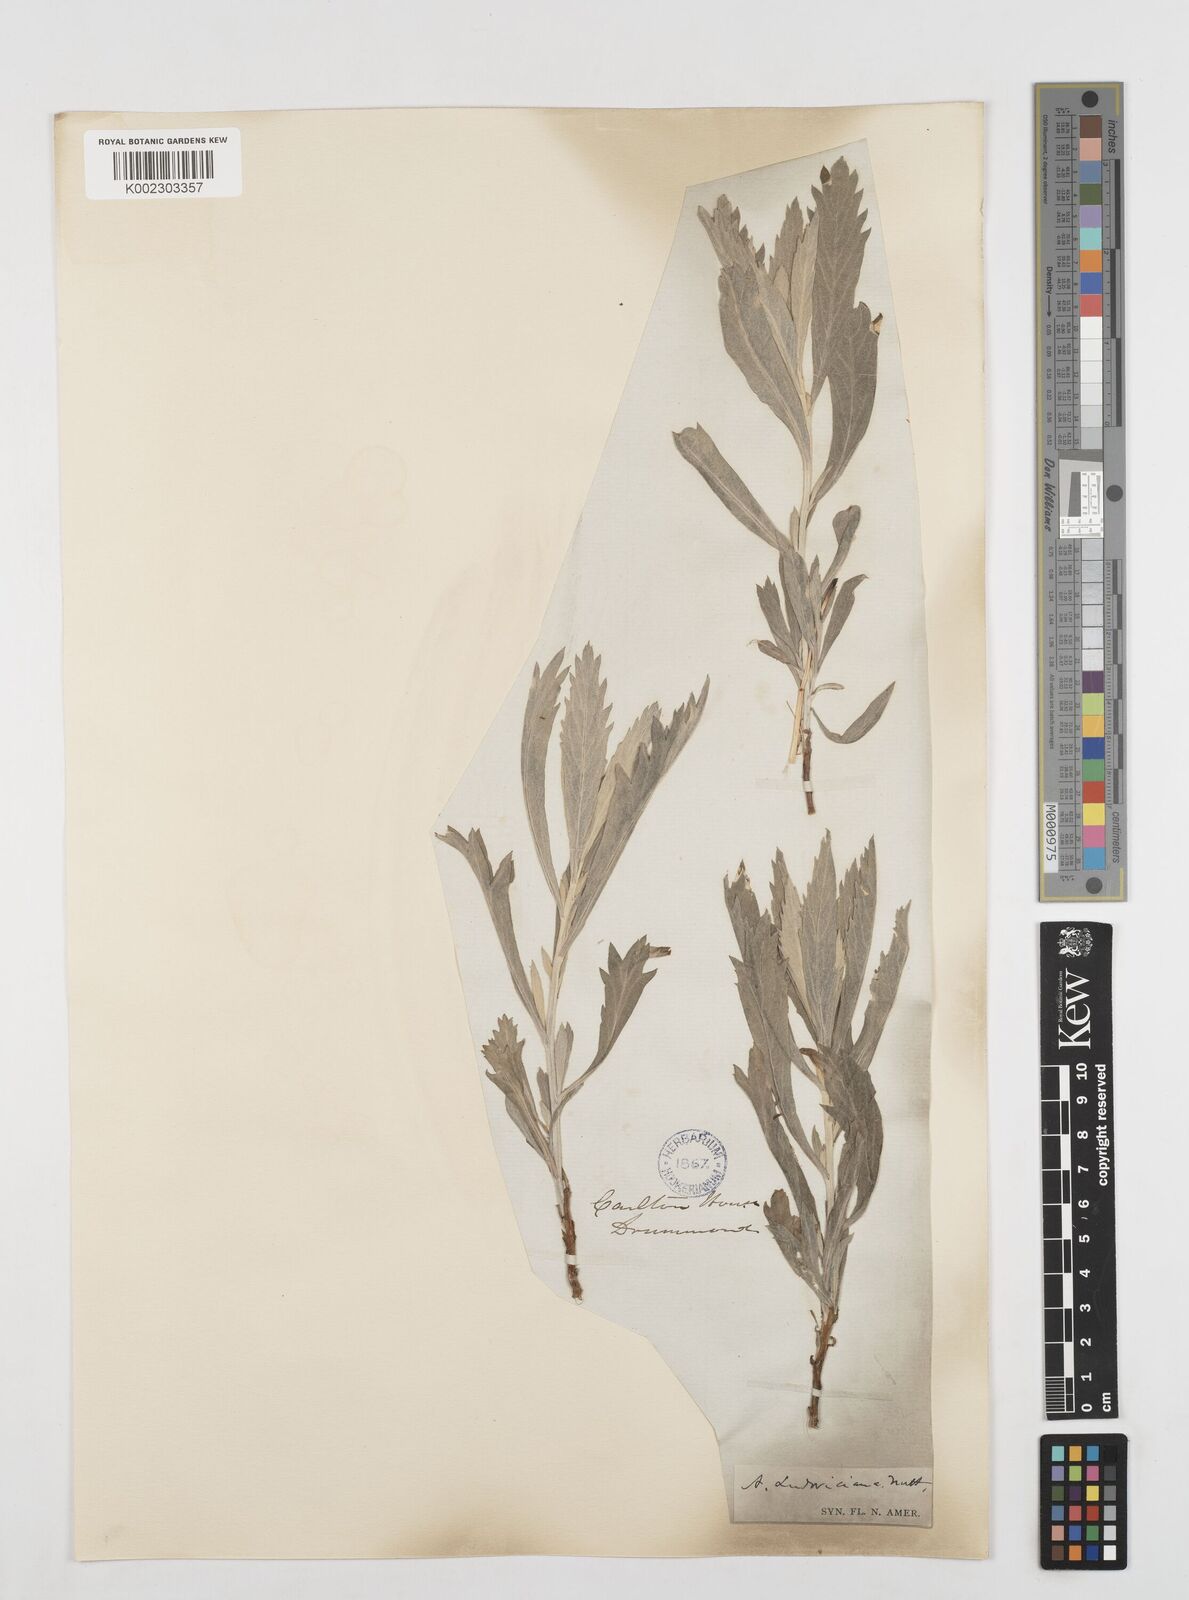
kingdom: Plantae
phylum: Tracheophyta
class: Magnoliopsida
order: Asterales
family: Asteraceae
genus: Artemisia
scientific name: Artemisia
